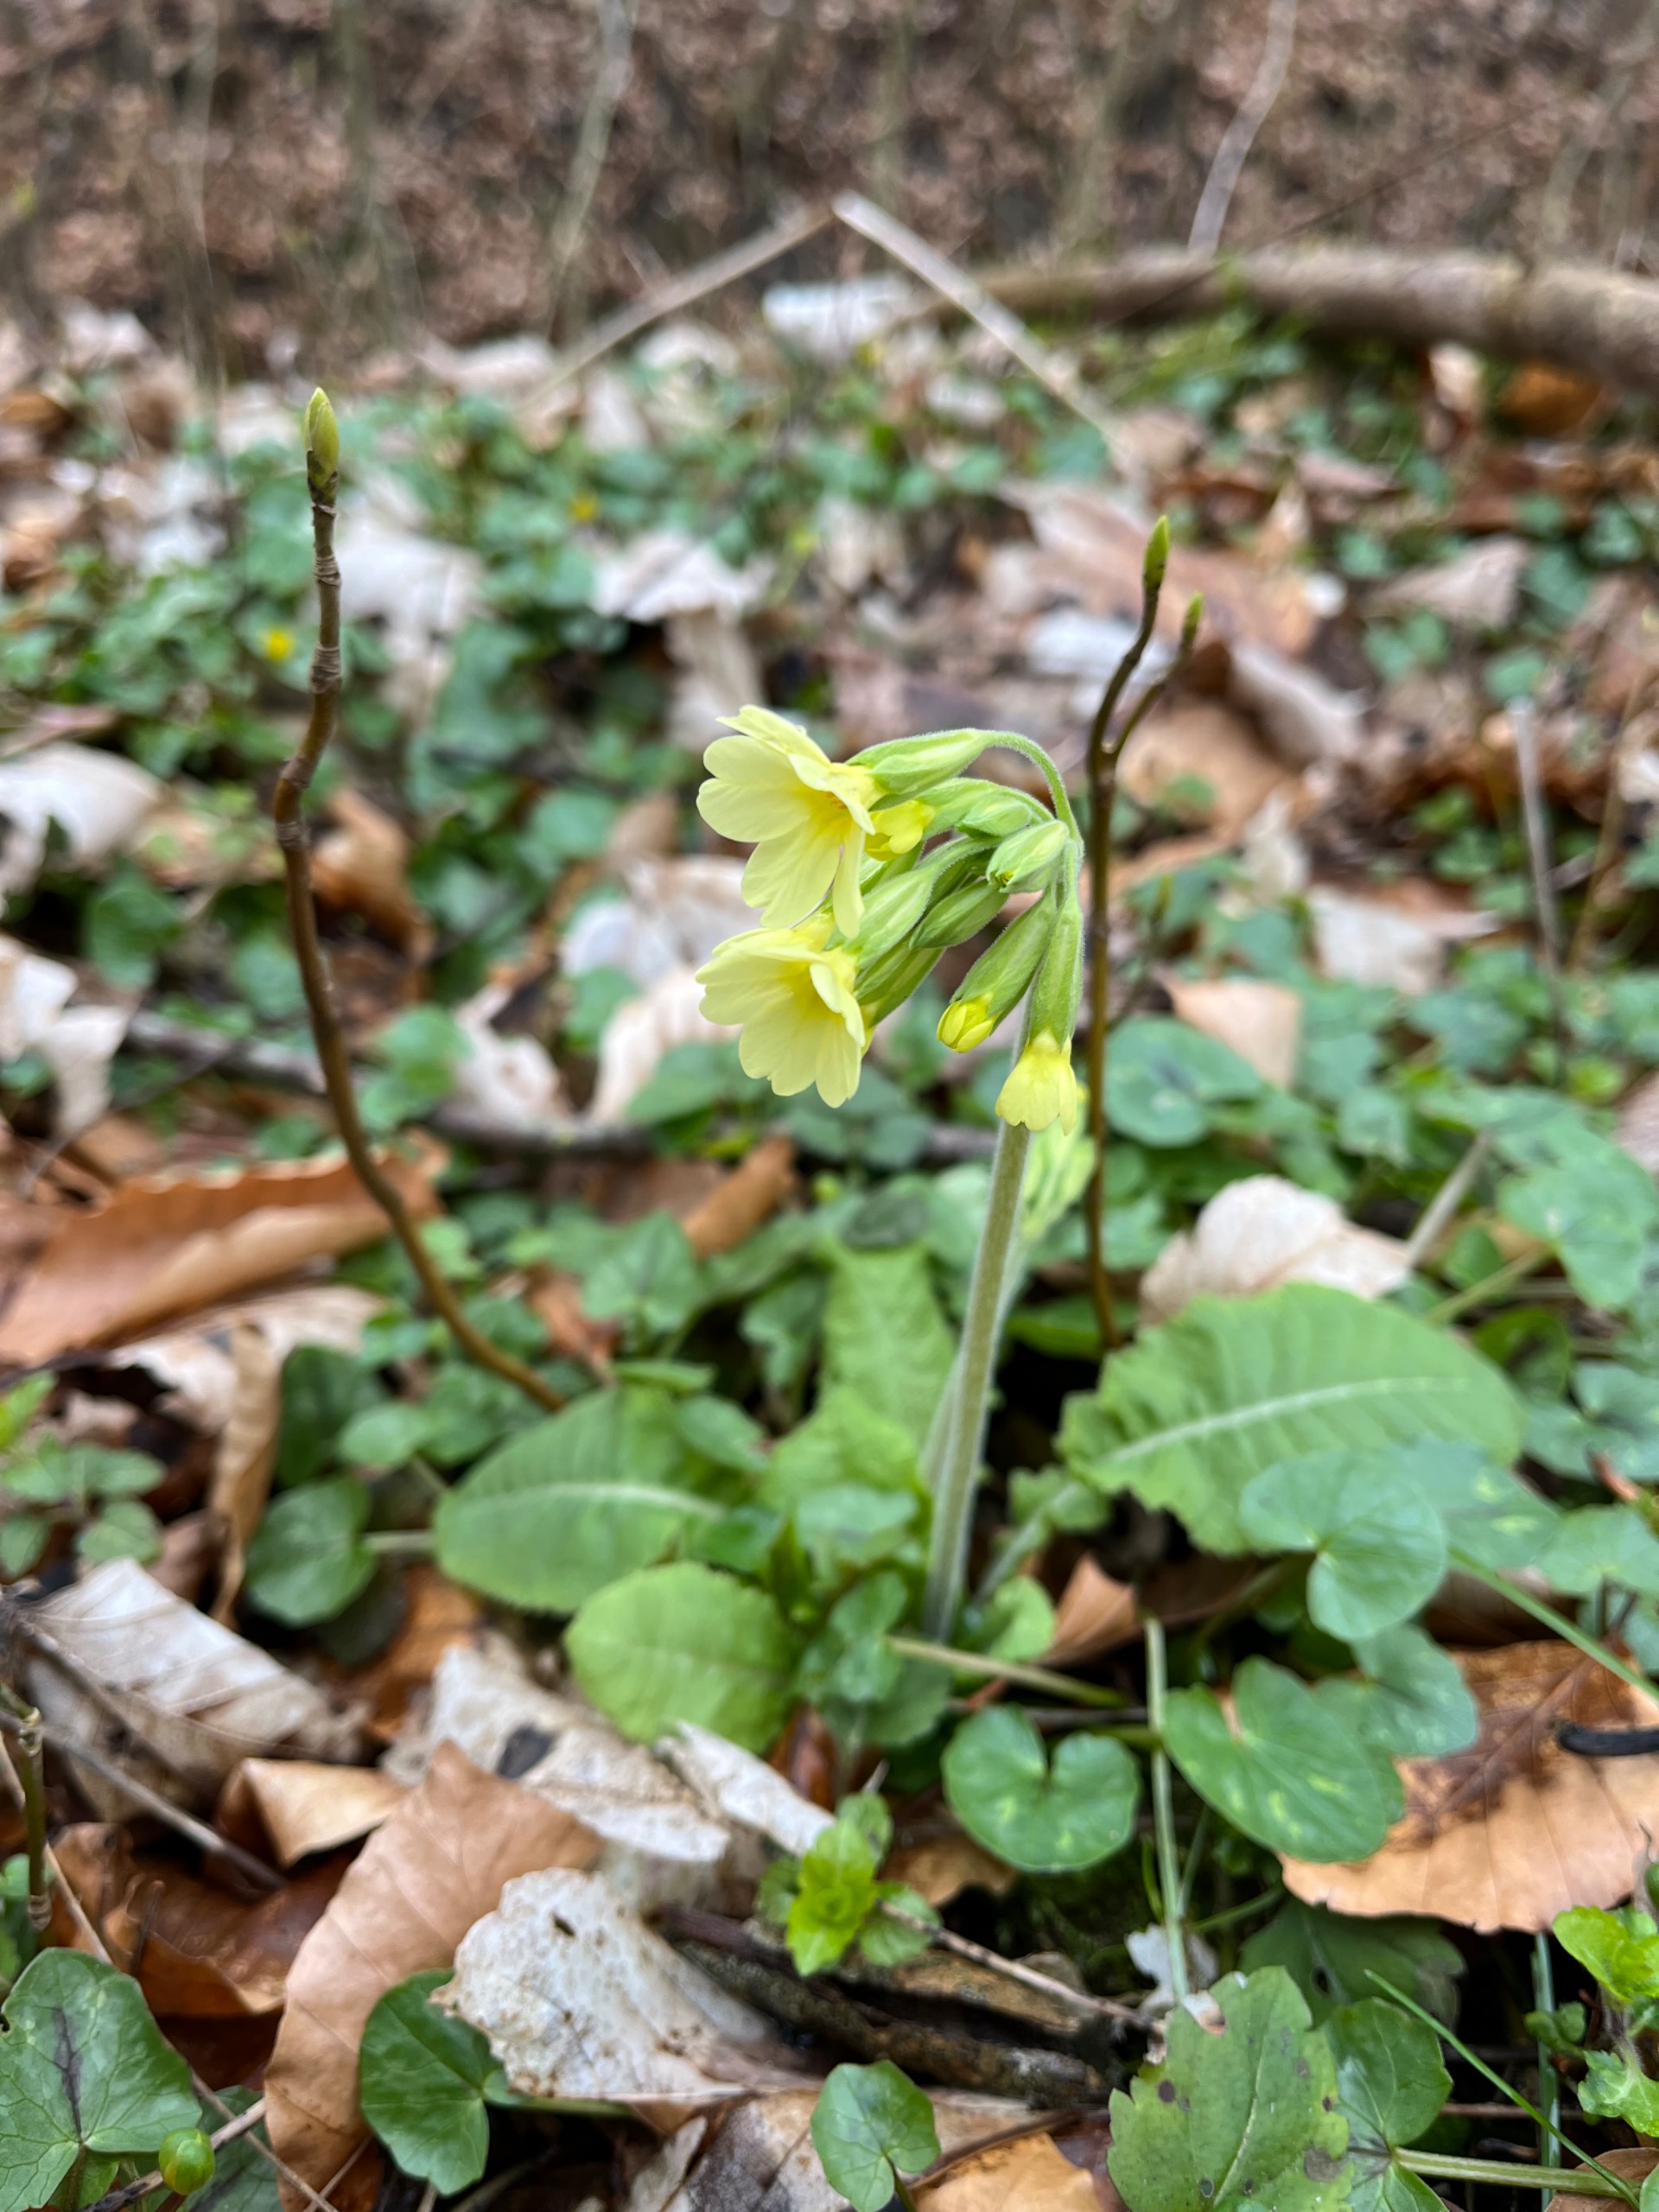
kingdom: Plantae
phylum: Tracheophyta
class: Magnoliopsida
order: Ericales
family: Primulaceae
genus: Primula
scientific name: Primula elatior
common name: Fladkravet kodriver
